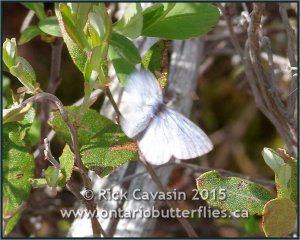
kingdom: Animalia
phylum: Arthropoda
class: Insecta
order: Lepidoptera
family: Lycaenidae
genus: Celastrina
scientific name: Celastrina lucia
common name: Northern Spring Azure
